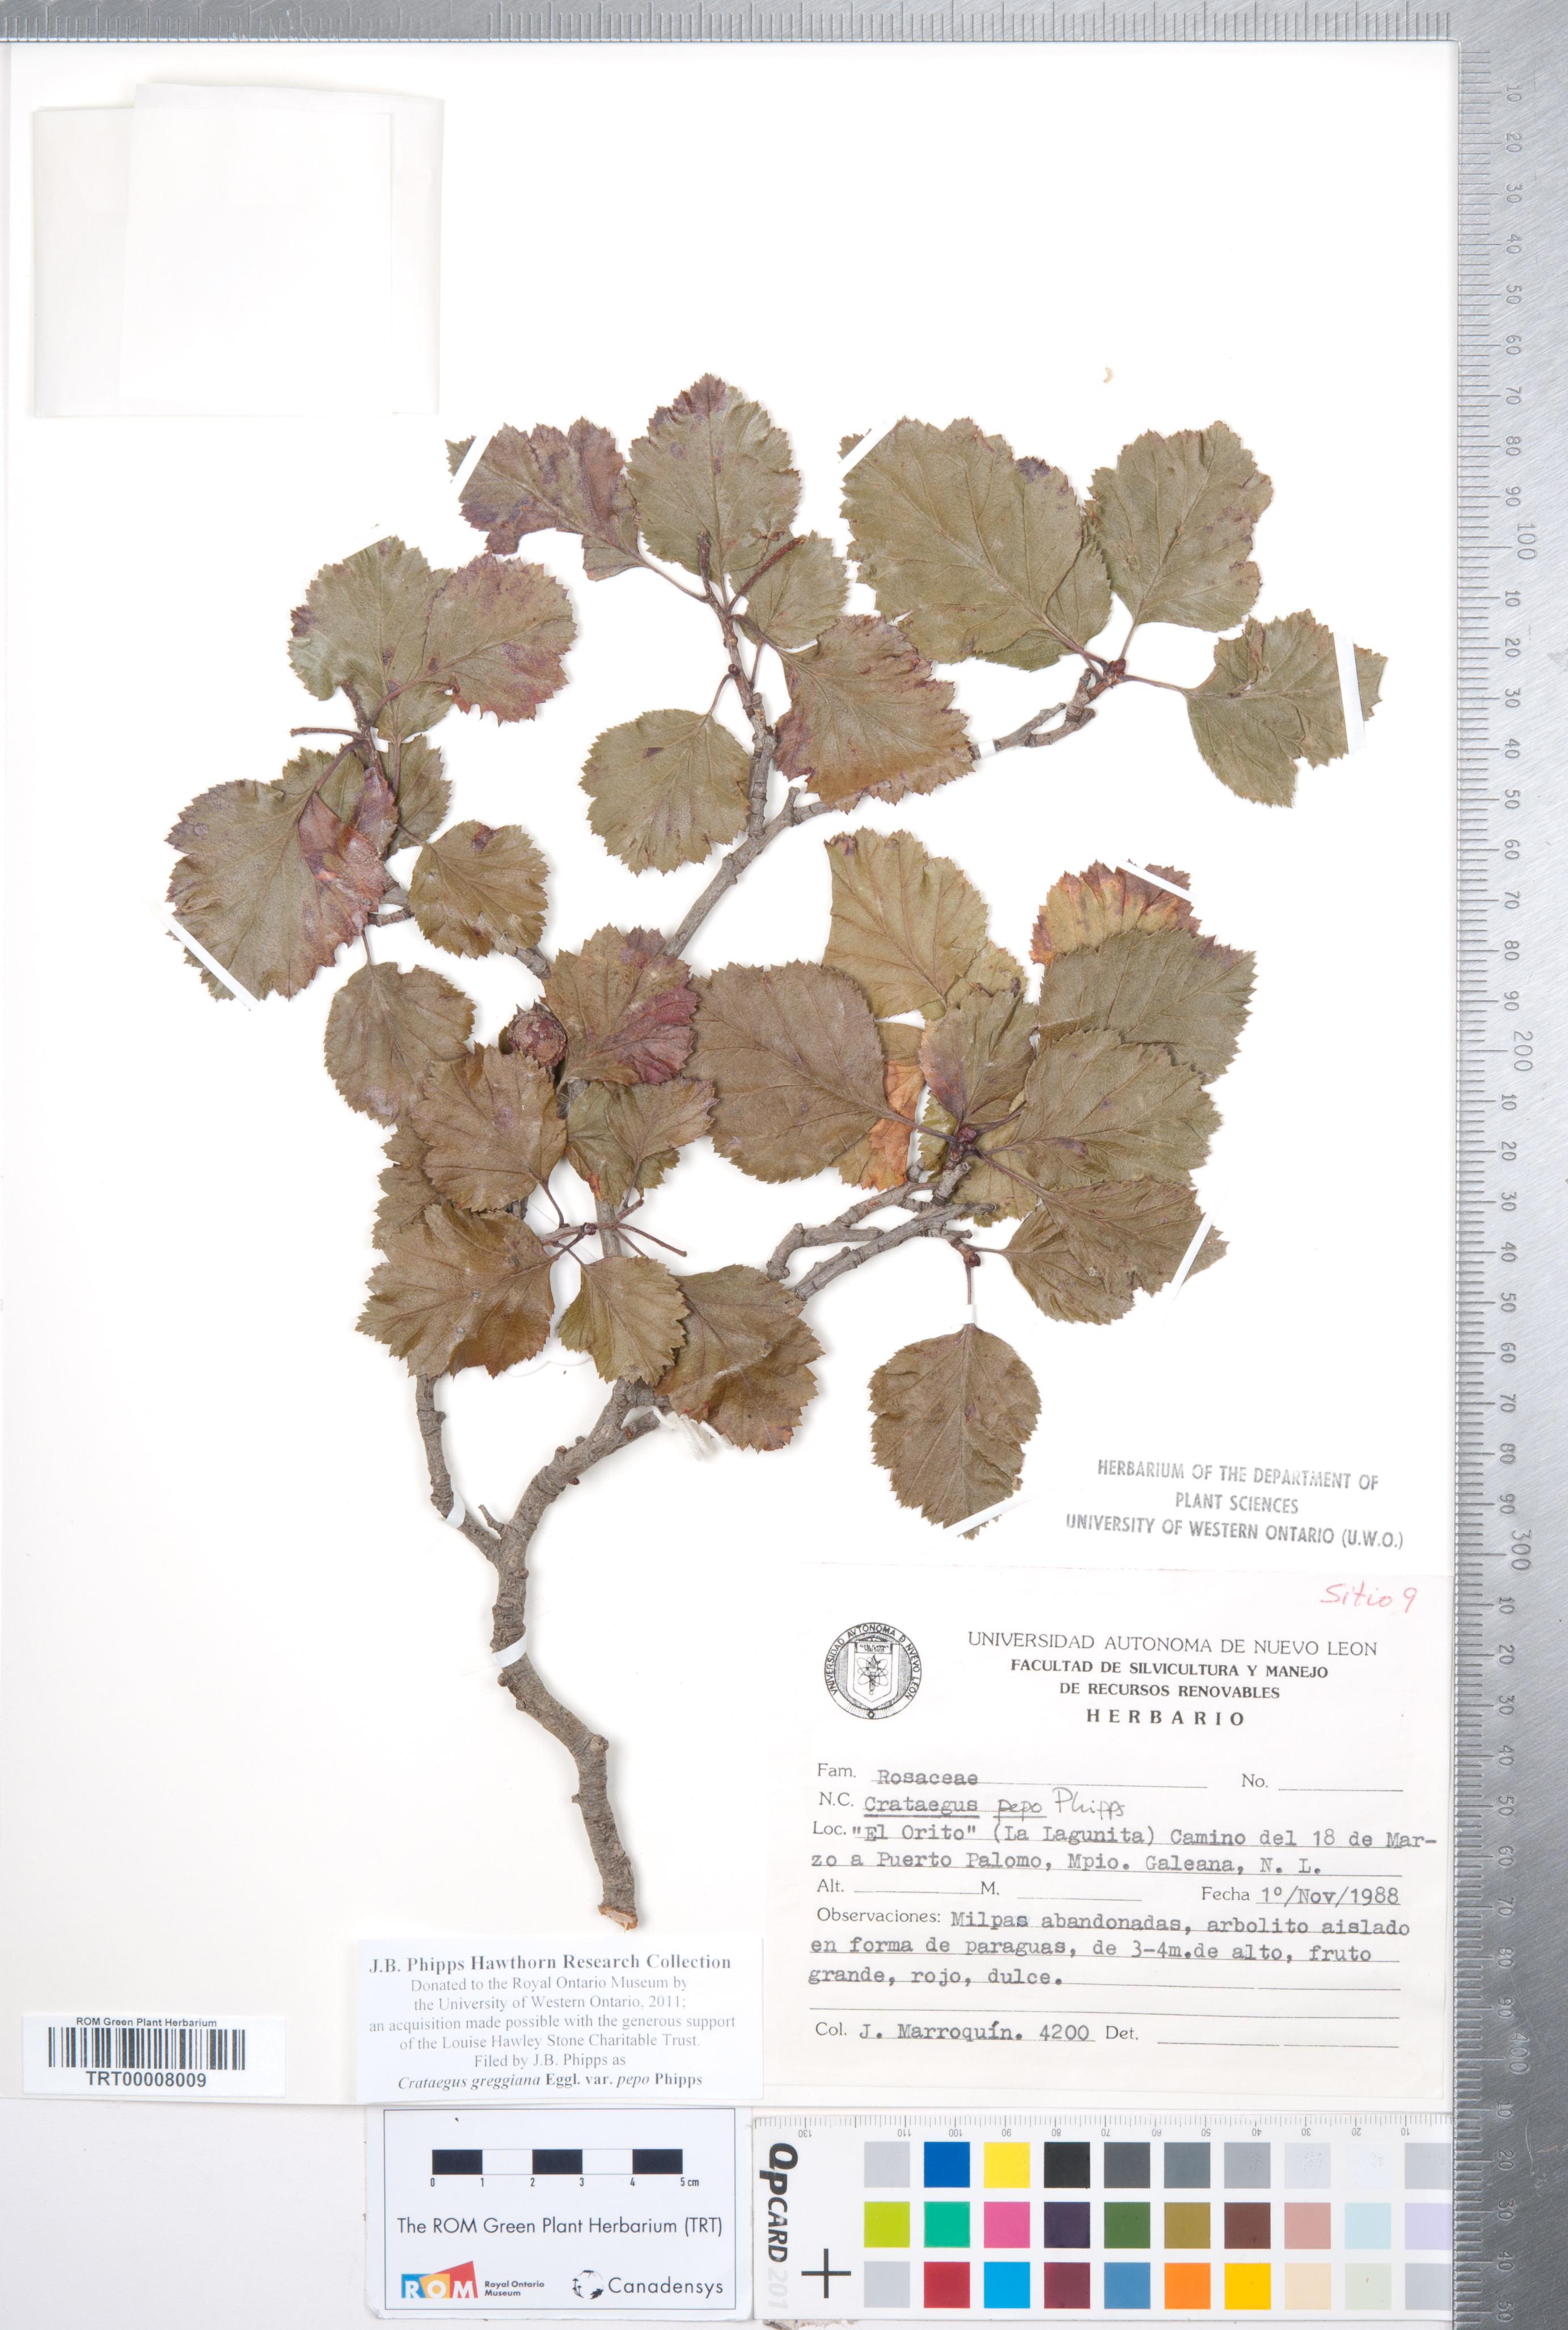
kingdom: Plantae
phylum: Tracheophyta
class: Magnoliopsida
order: Rosales
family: Rosaceae
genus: Crataegus
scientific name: Crataegus greggiana
